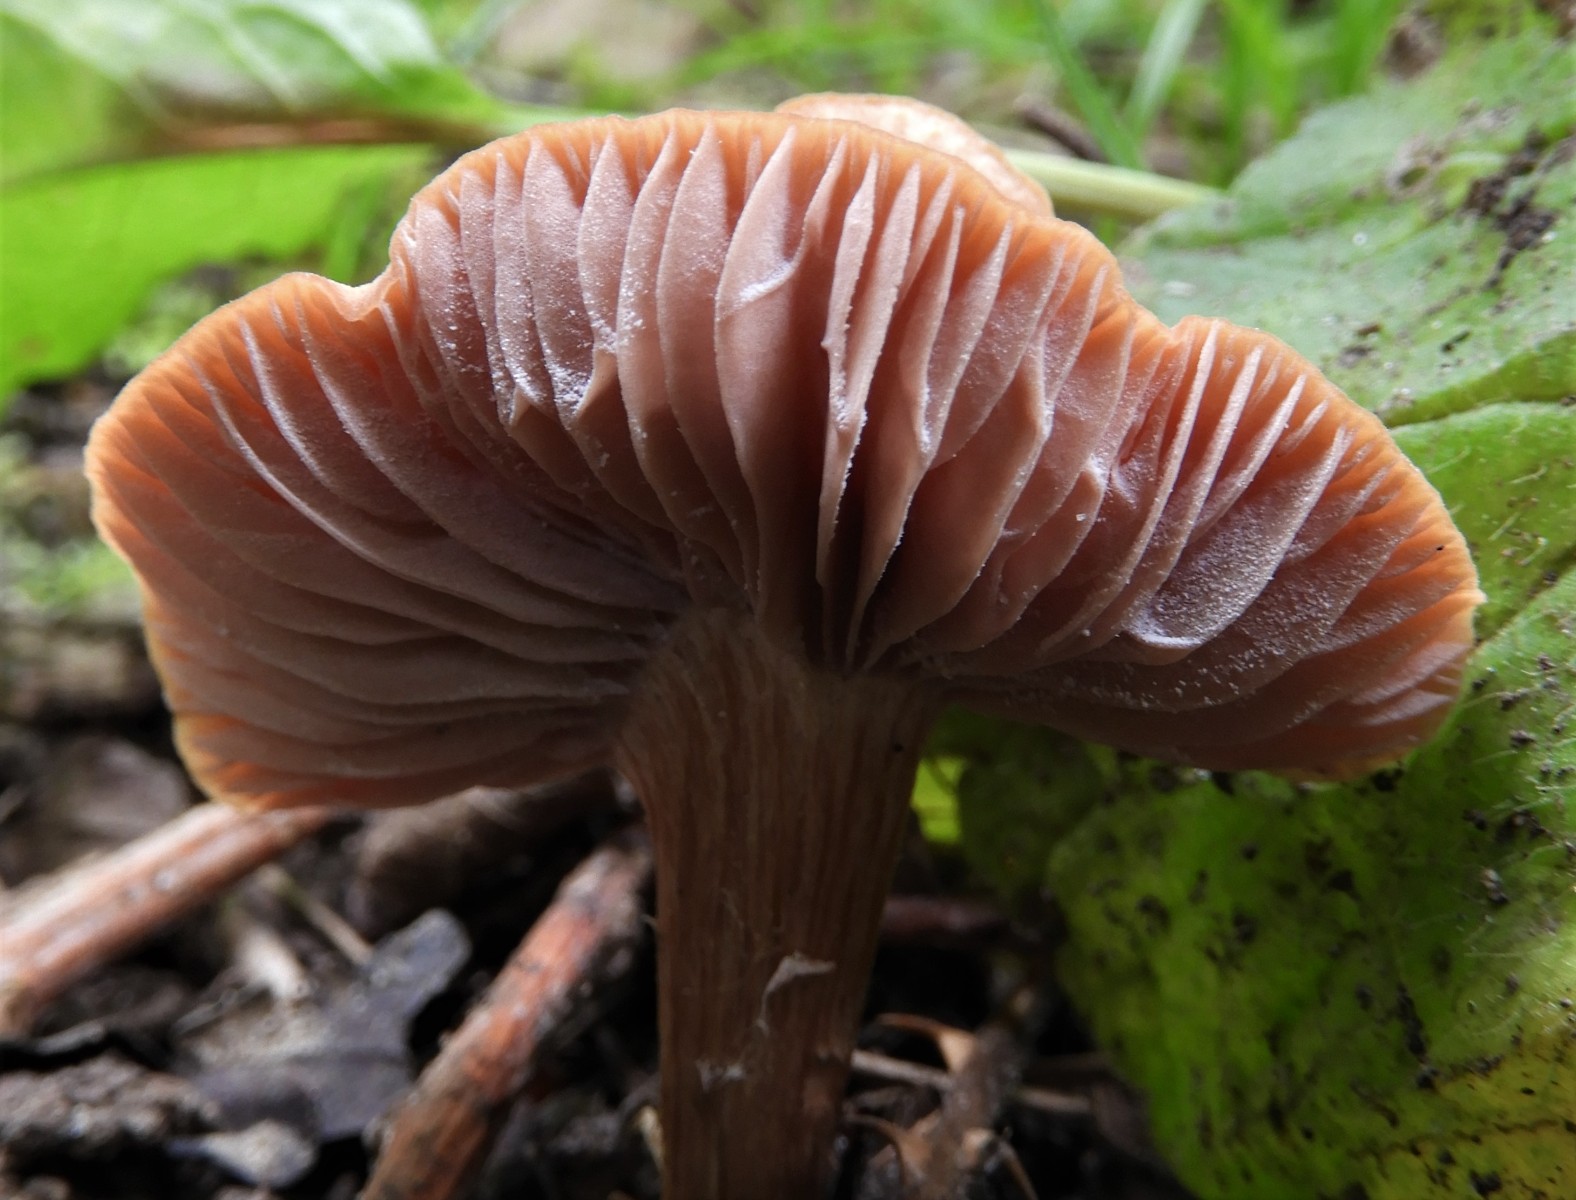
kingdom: Fungi
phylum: Basidiomycota
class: Agaricomycetes
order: Agaricales
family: Hydnangiaceae
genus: Laccaria
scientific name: Laccaria
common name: ametysthat
